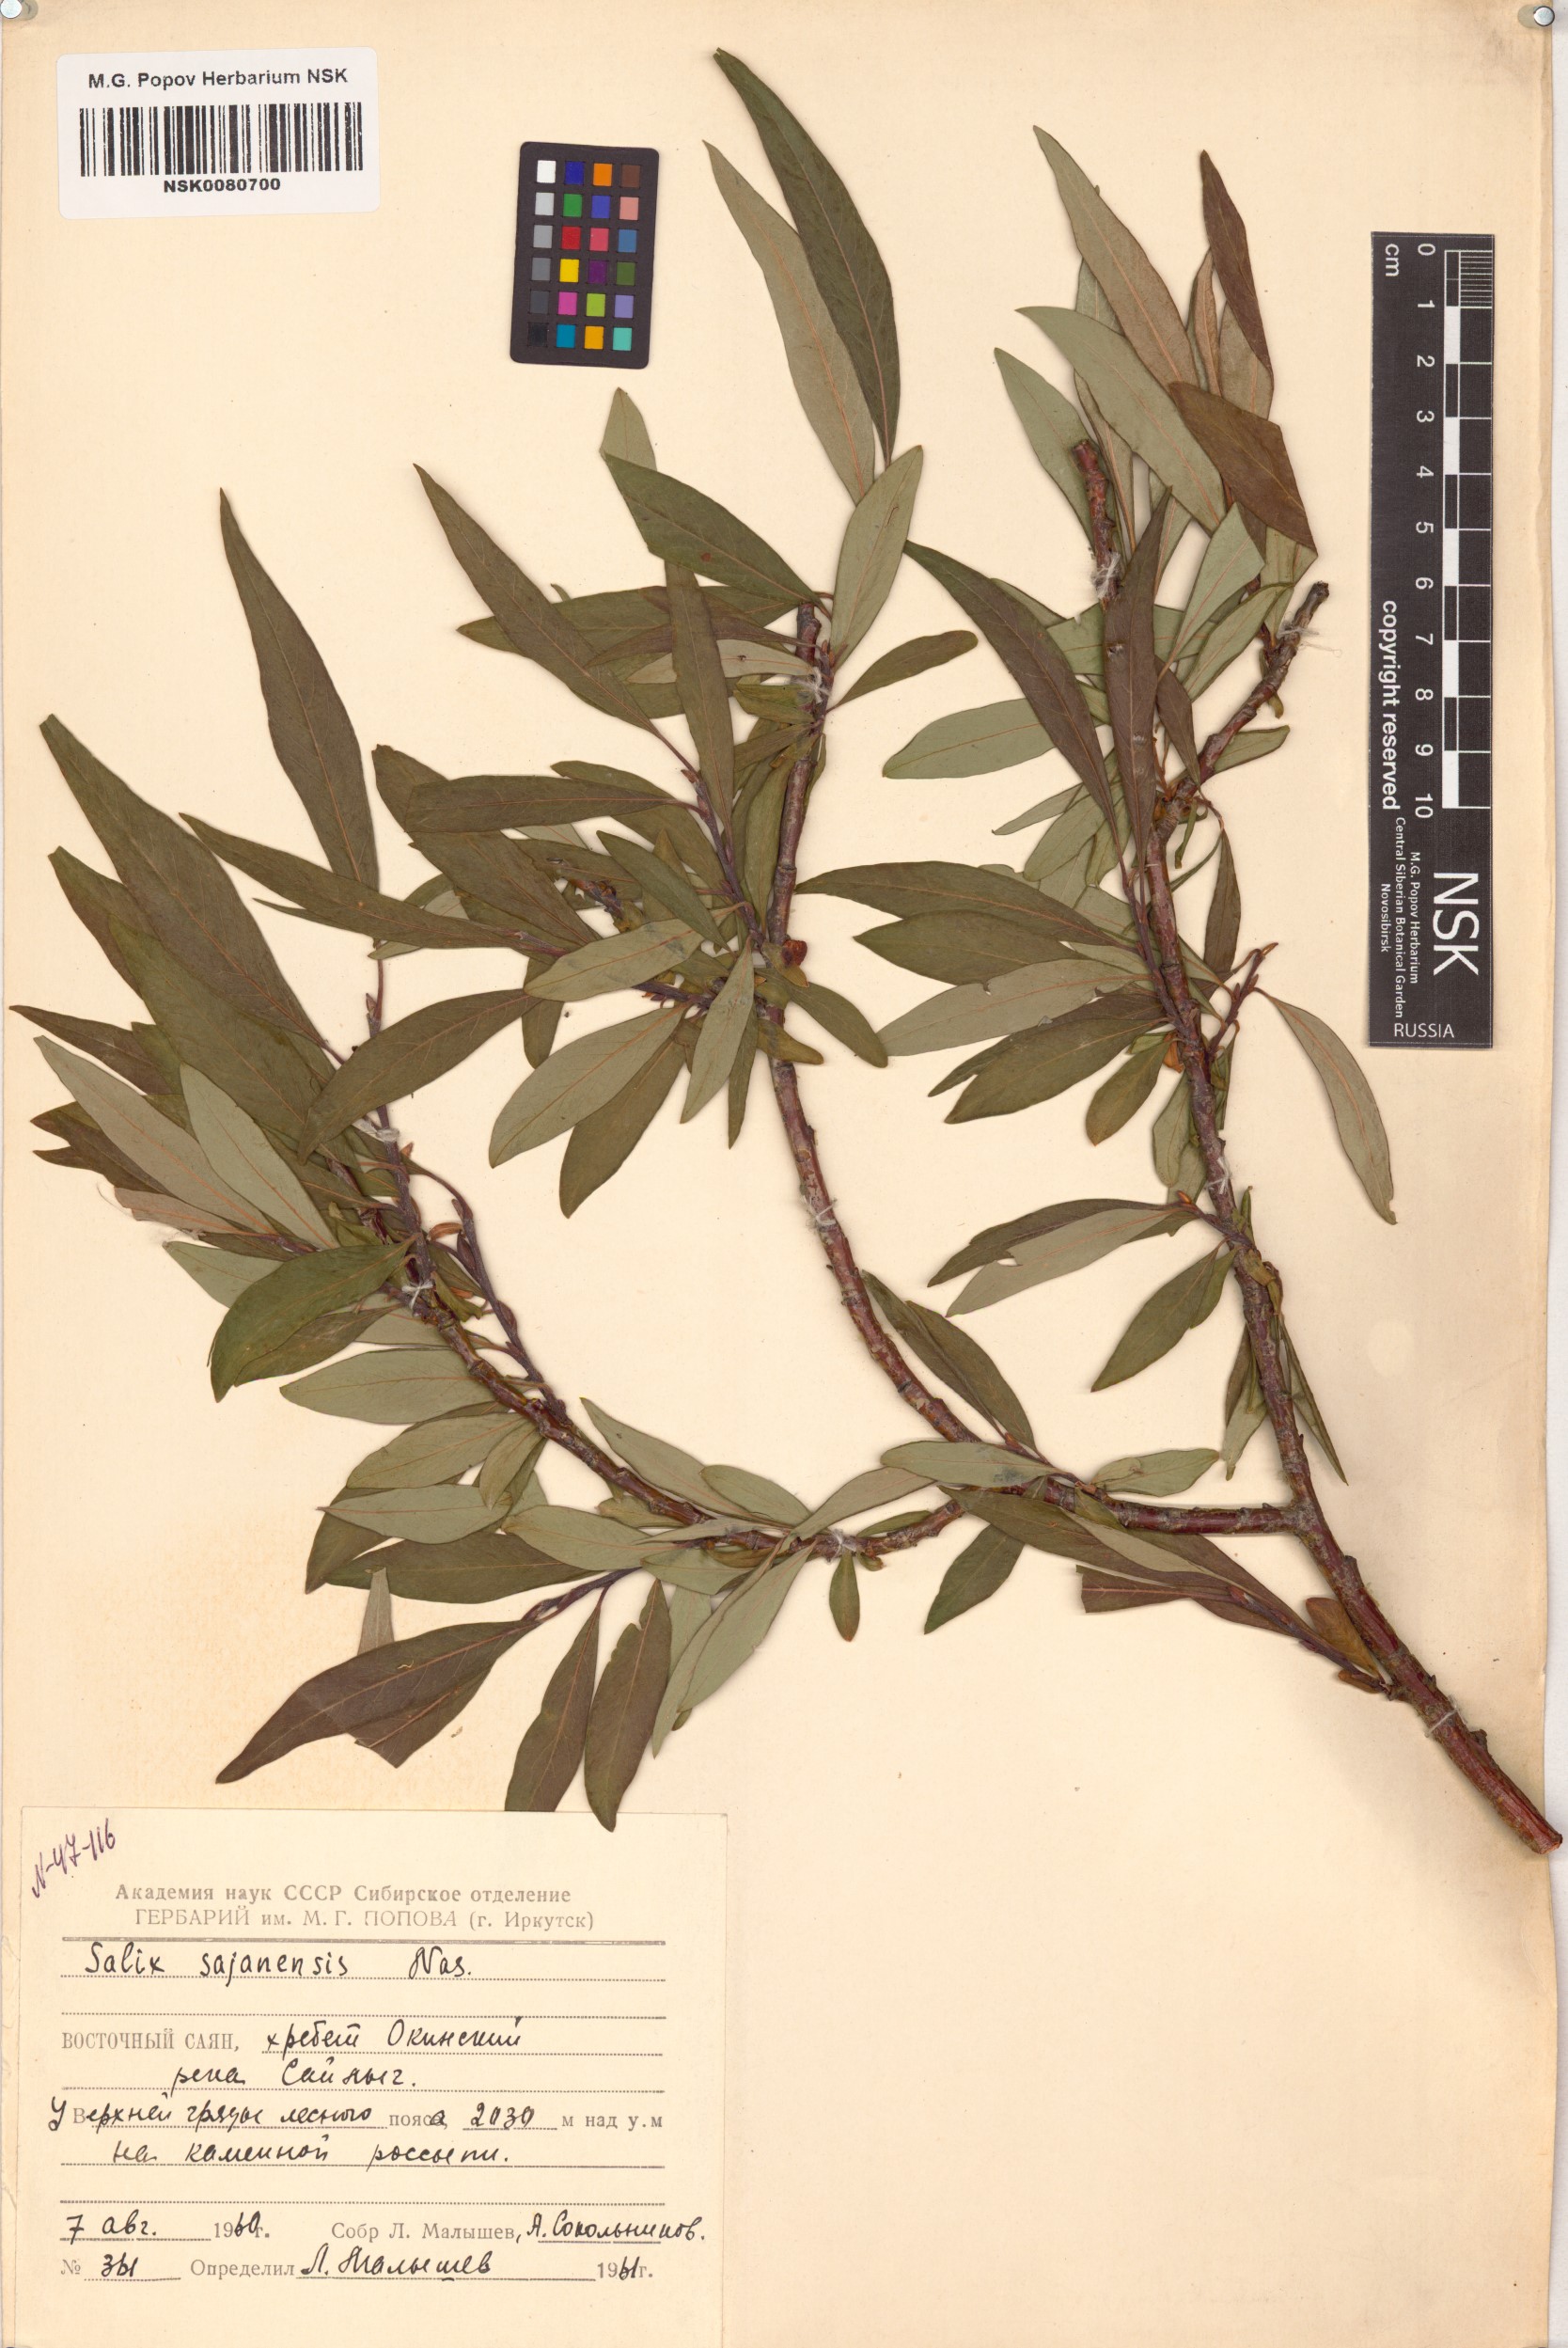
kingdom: Plantae
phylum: Tracheophyta
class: Magnoliopsida
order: Malpighiales
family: Salicaceae
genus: Salix
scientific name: Salix sajanensis
